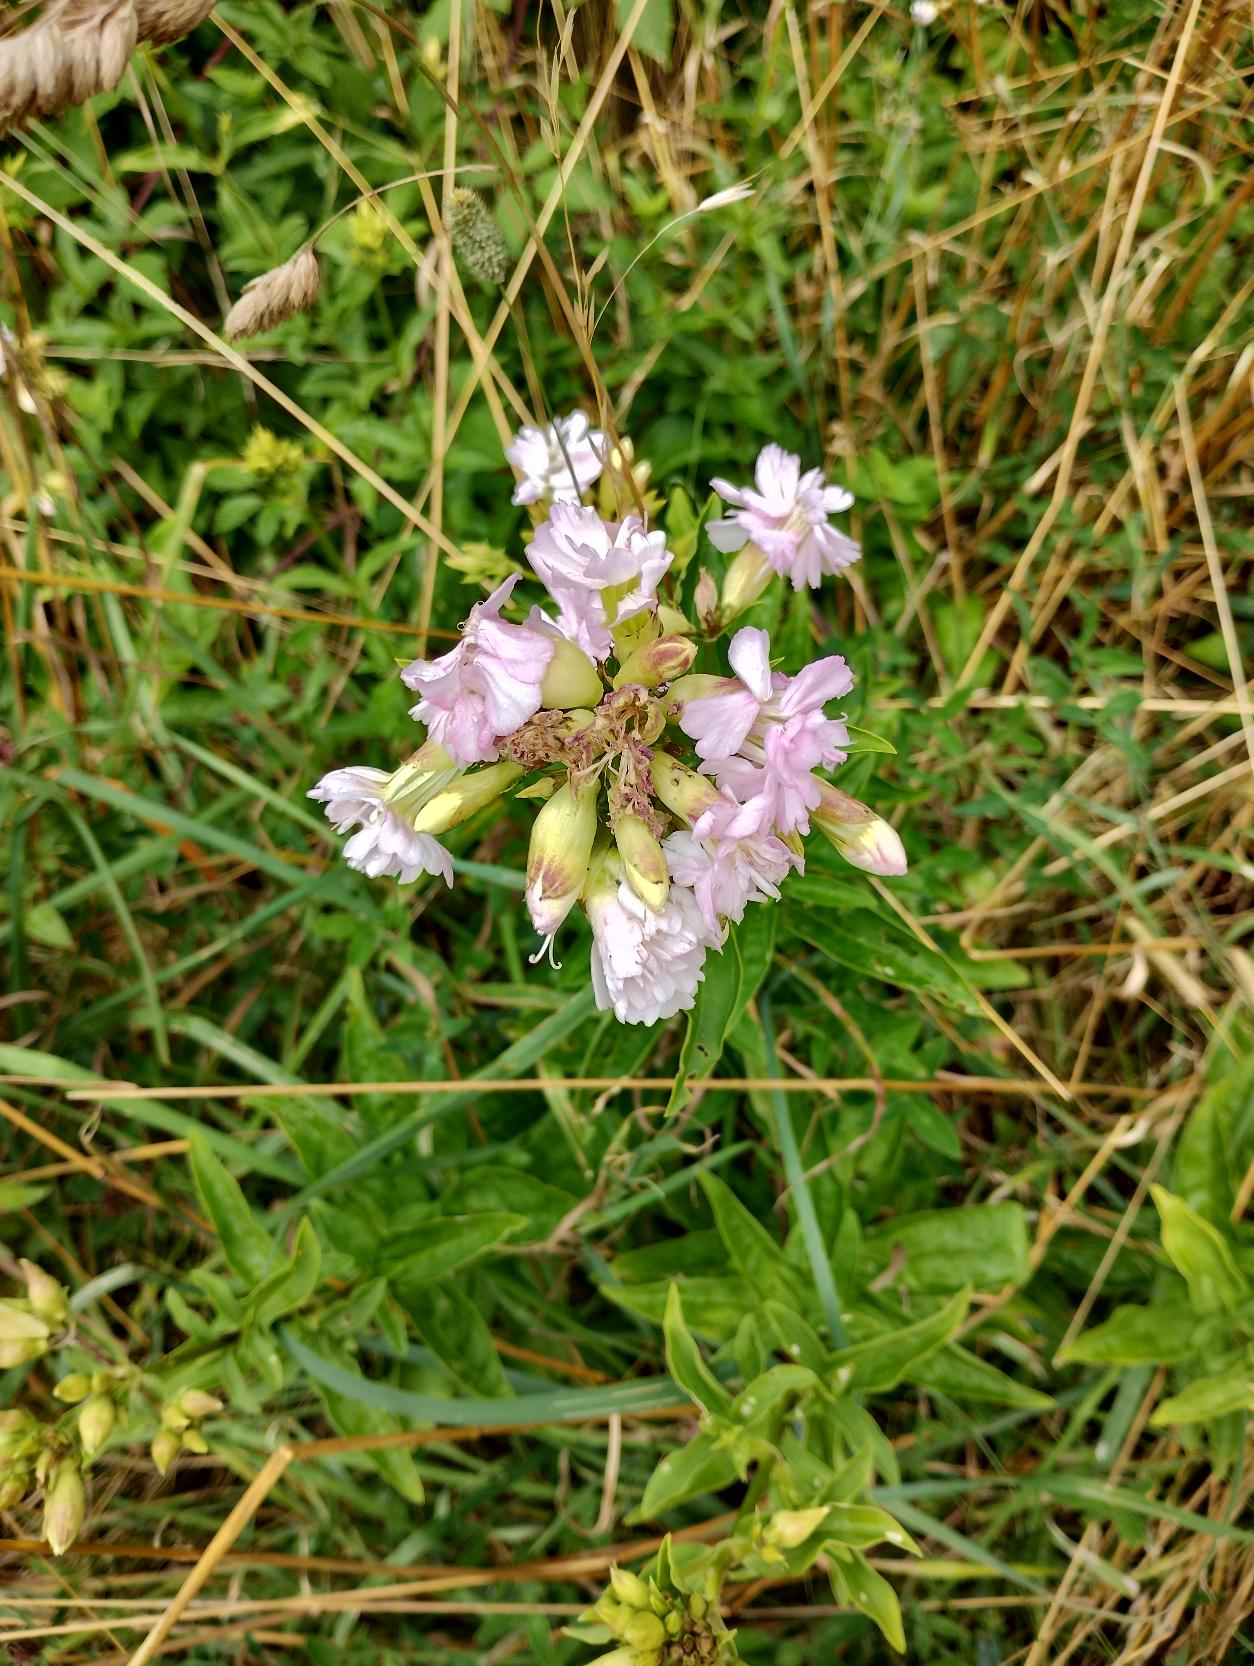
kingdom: Plantae
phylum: Tracheophyta
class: Magnoliopsida
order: Caryophyllales
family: Caryophyllaceae
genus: Saponaria
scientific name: Saponaria officinalis
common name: Sæbeurt
